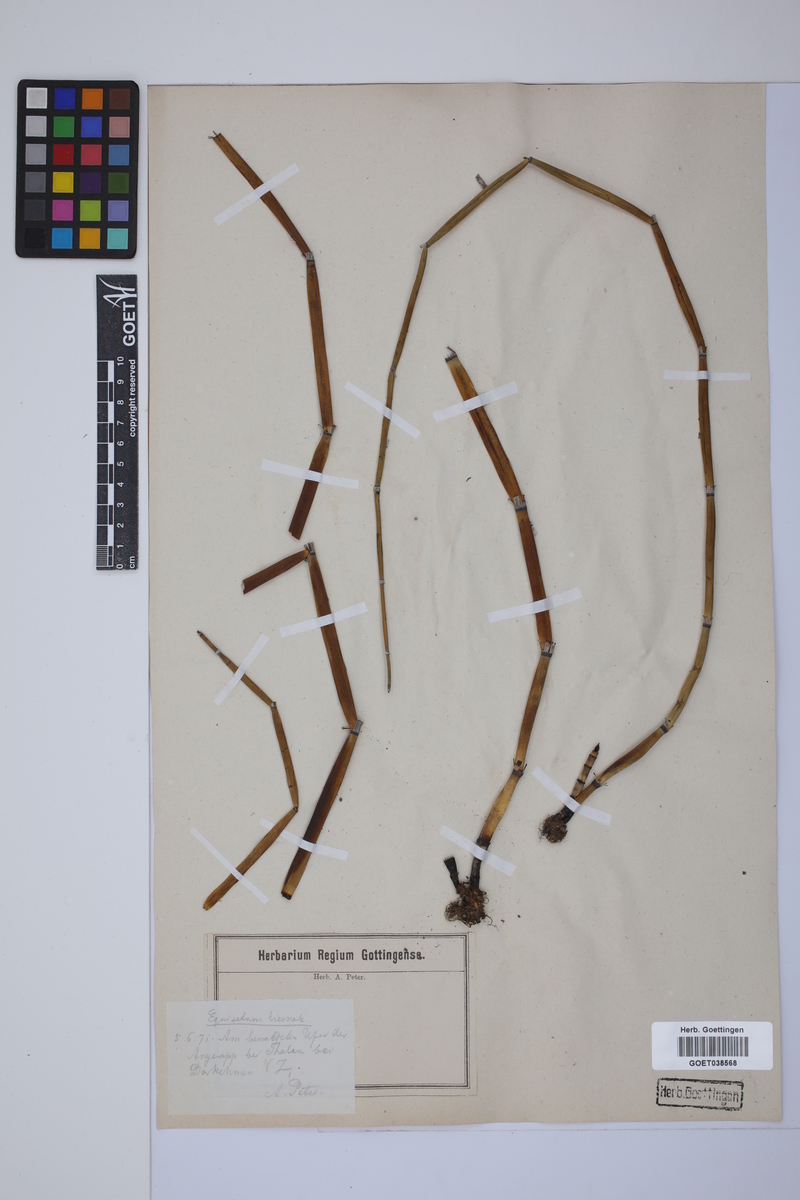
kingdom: Plantae
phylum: Tracheophyta
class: Polypodiopsida
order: Equisetales
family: Equisetaceae
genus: Equisetum
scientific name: Equisetum hyemale
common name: Rough horsetail
